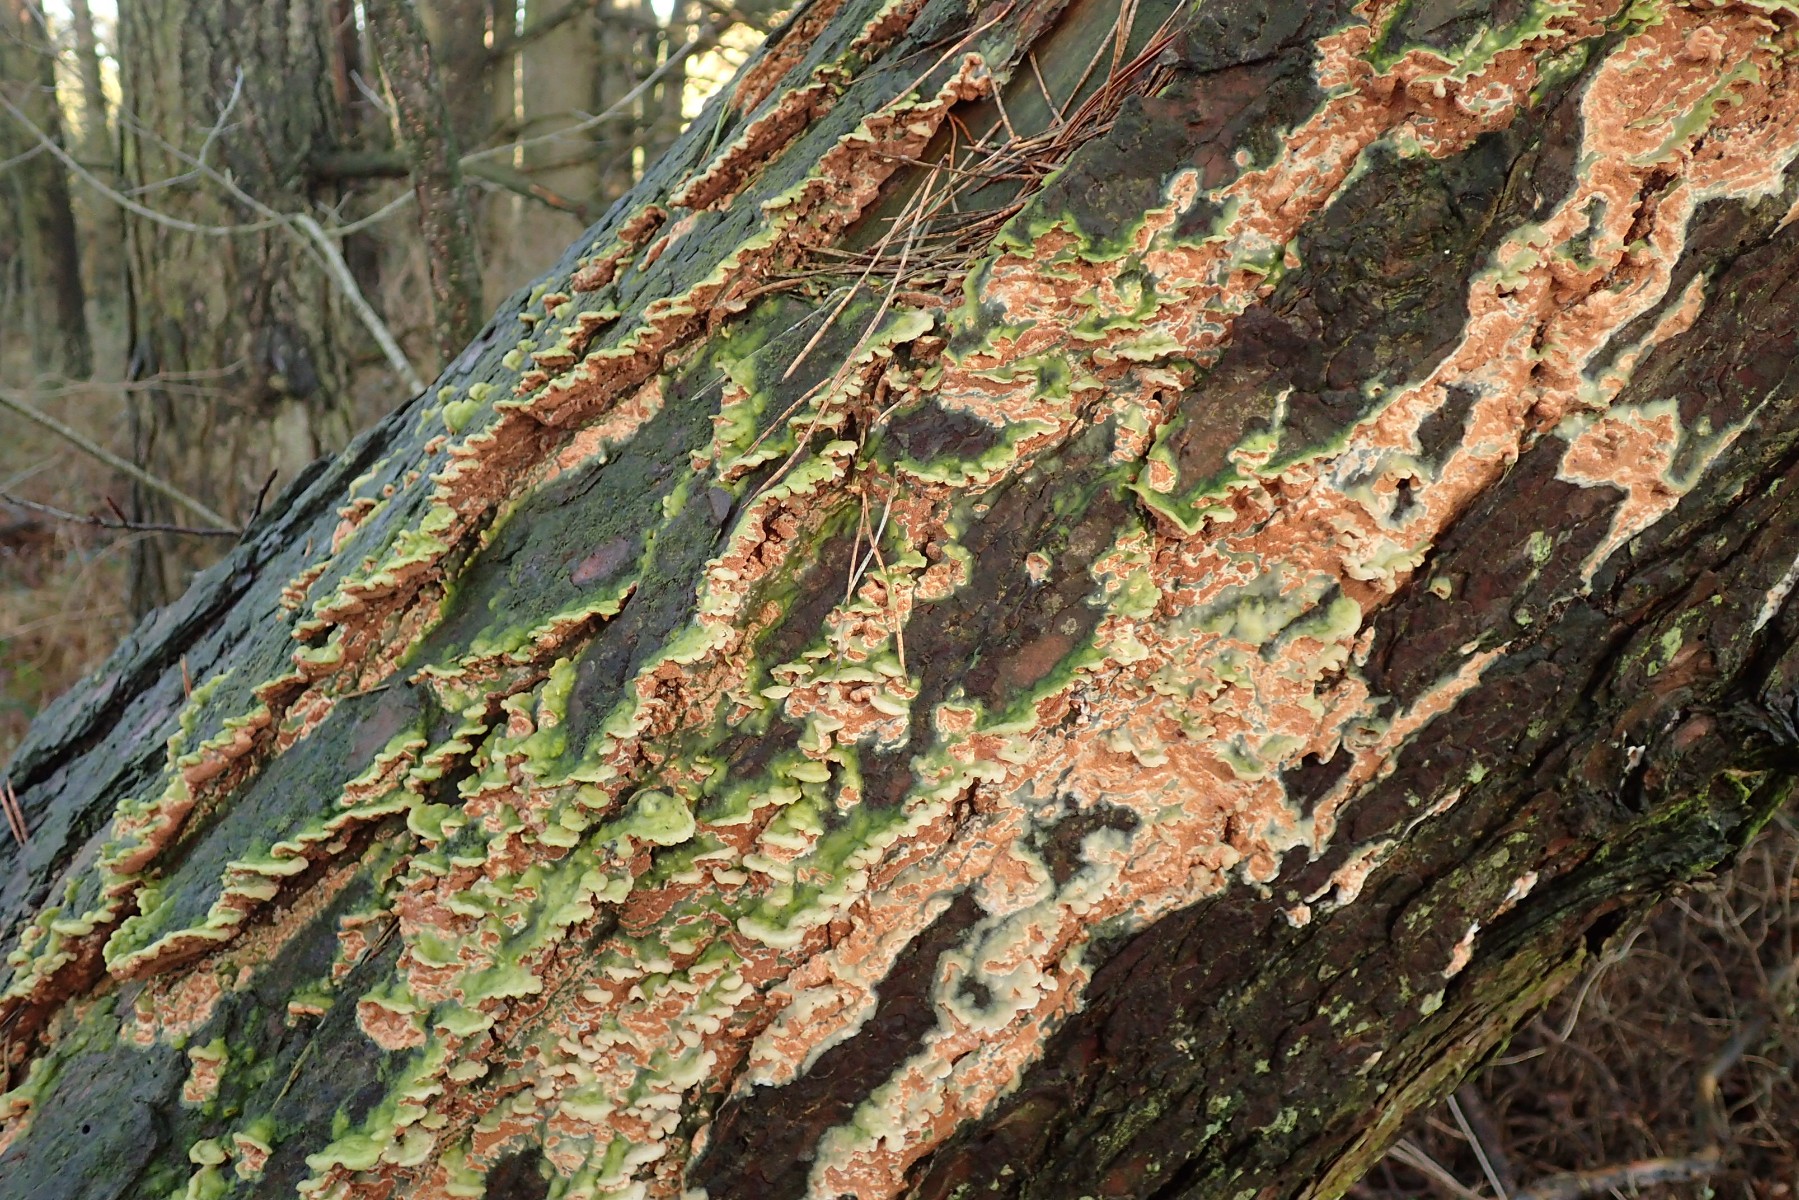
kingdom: Fungi
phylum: Basidiomycota
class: Agaricomycetes
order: Polyporales
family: Irpicaceae
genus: Meruliopsis
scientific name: Meruliopsis taxicola
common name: purpurbrun foldporesvamp
